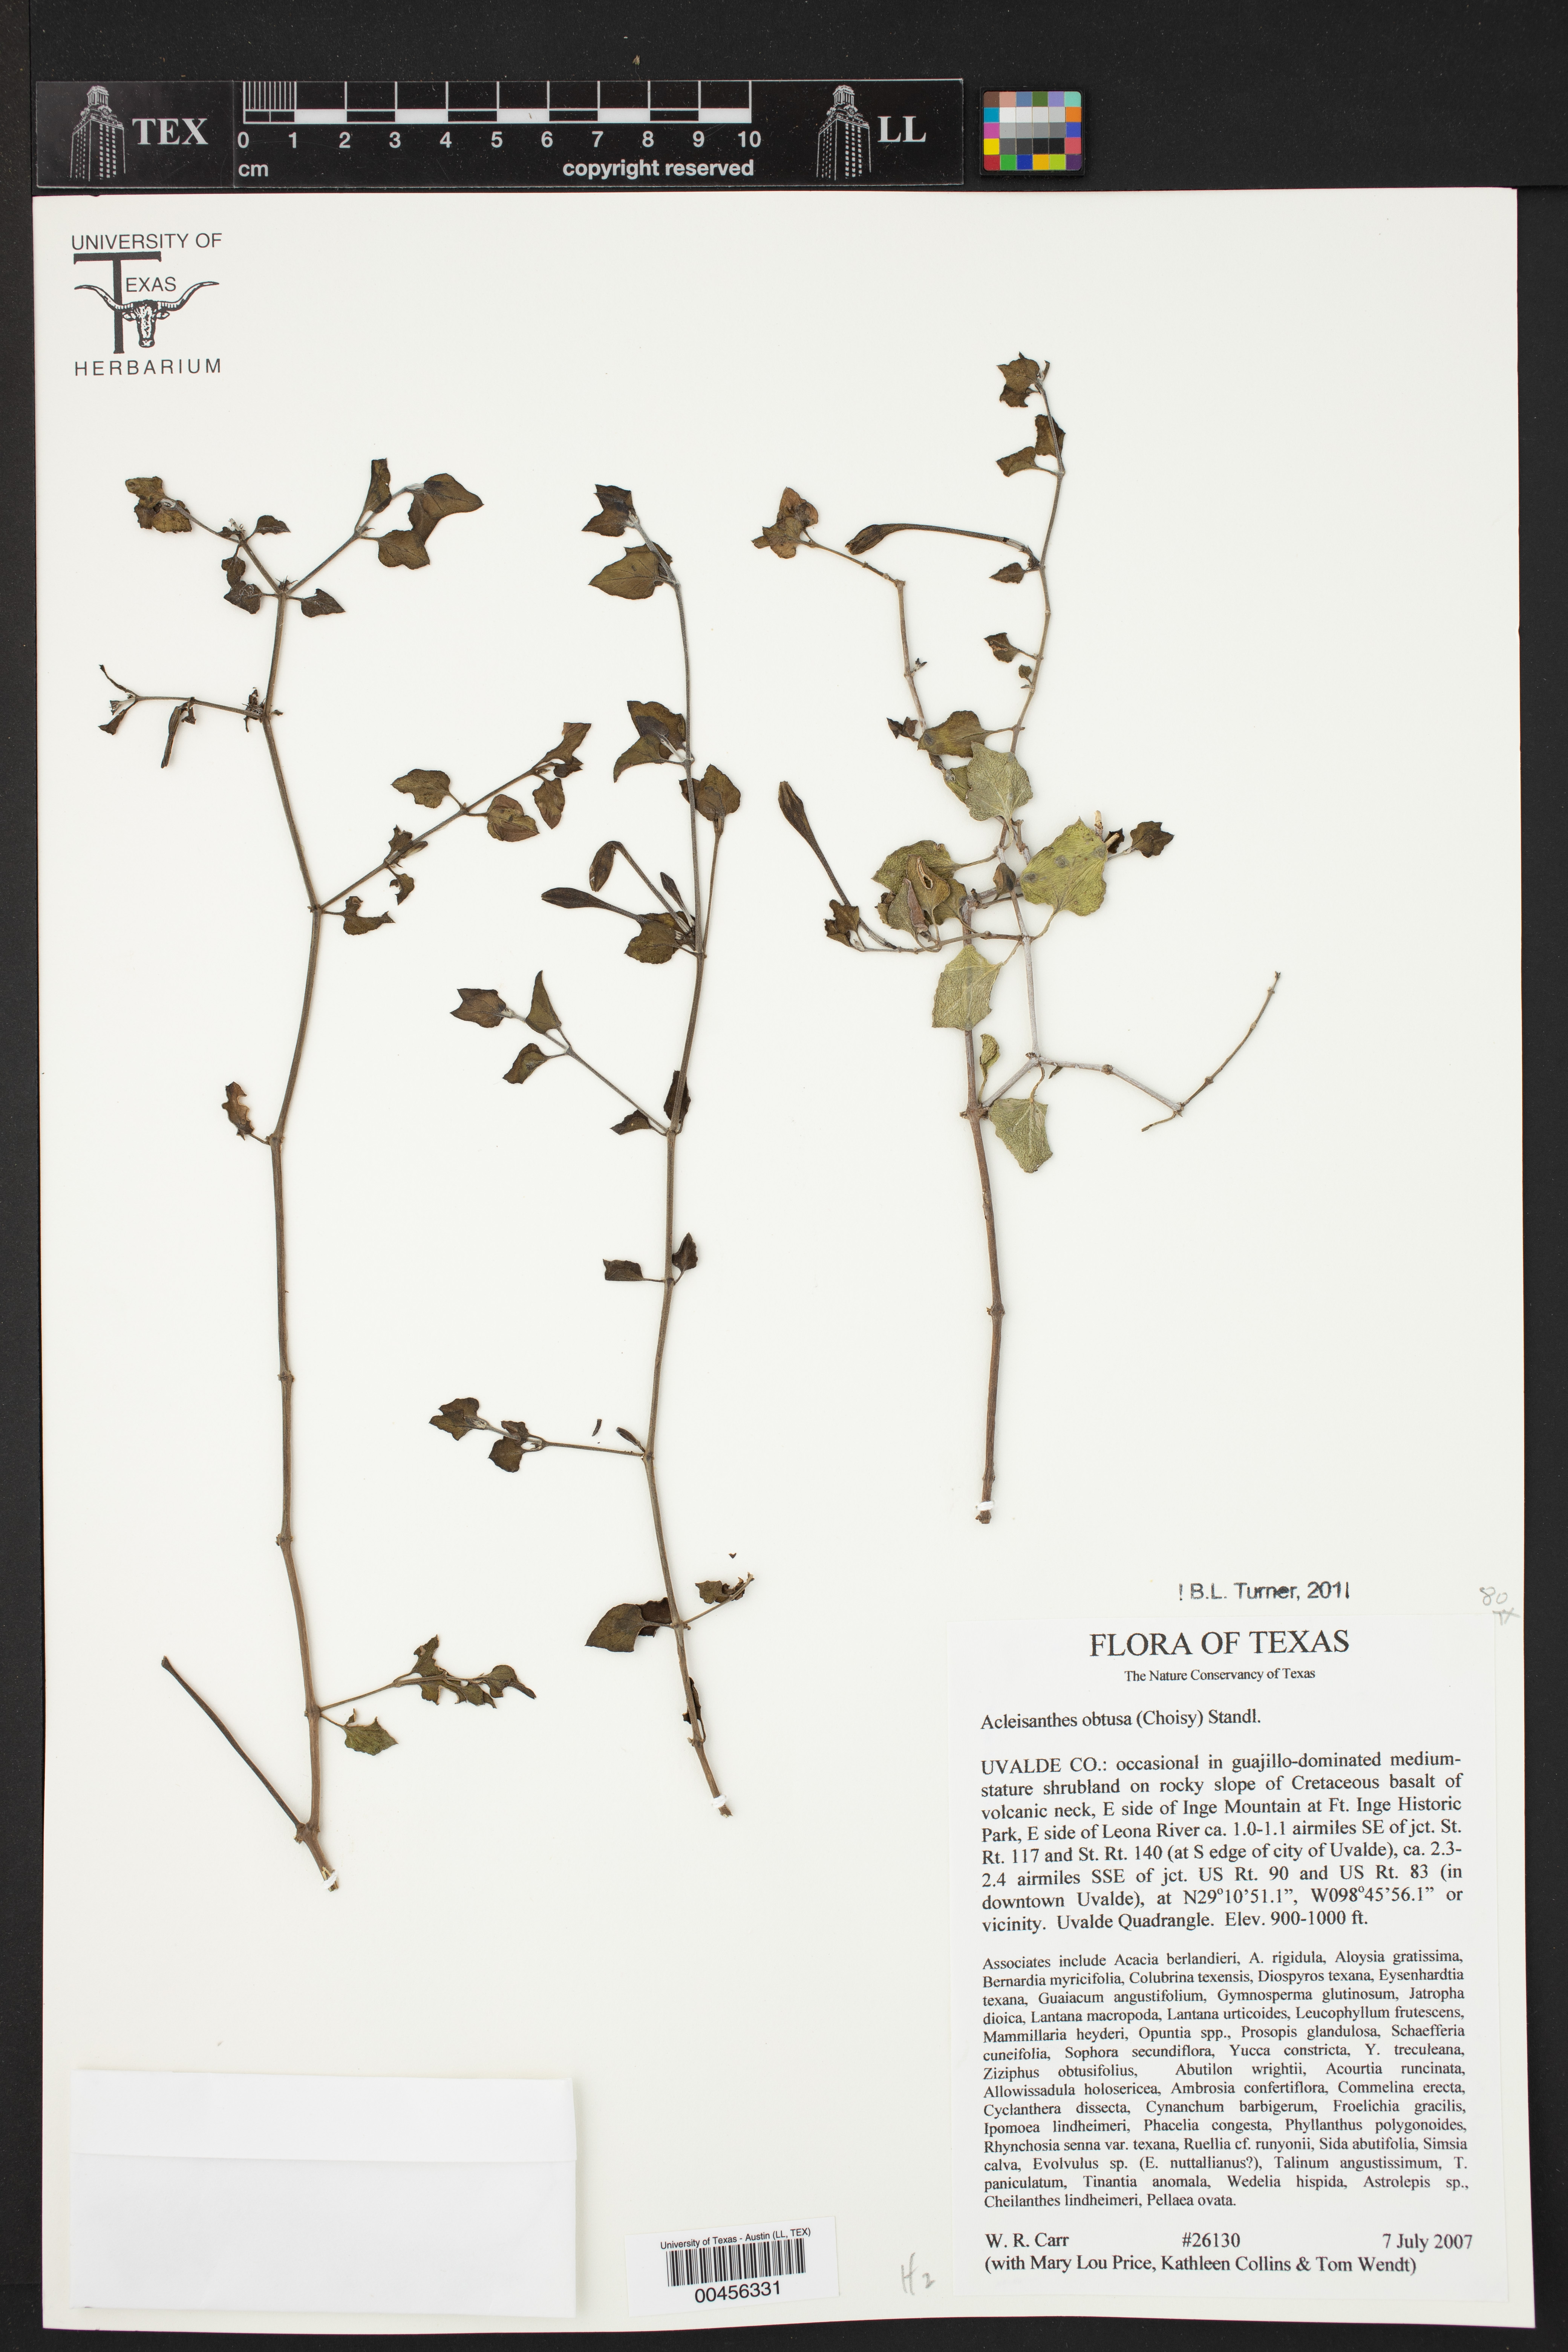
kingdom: Plantae
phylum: Tracheophyta
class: Magnoliopsida
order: Caryophyllales
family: Nyctaginaceae
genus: Acleisanthes
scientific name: Acleisanthes obtusa
